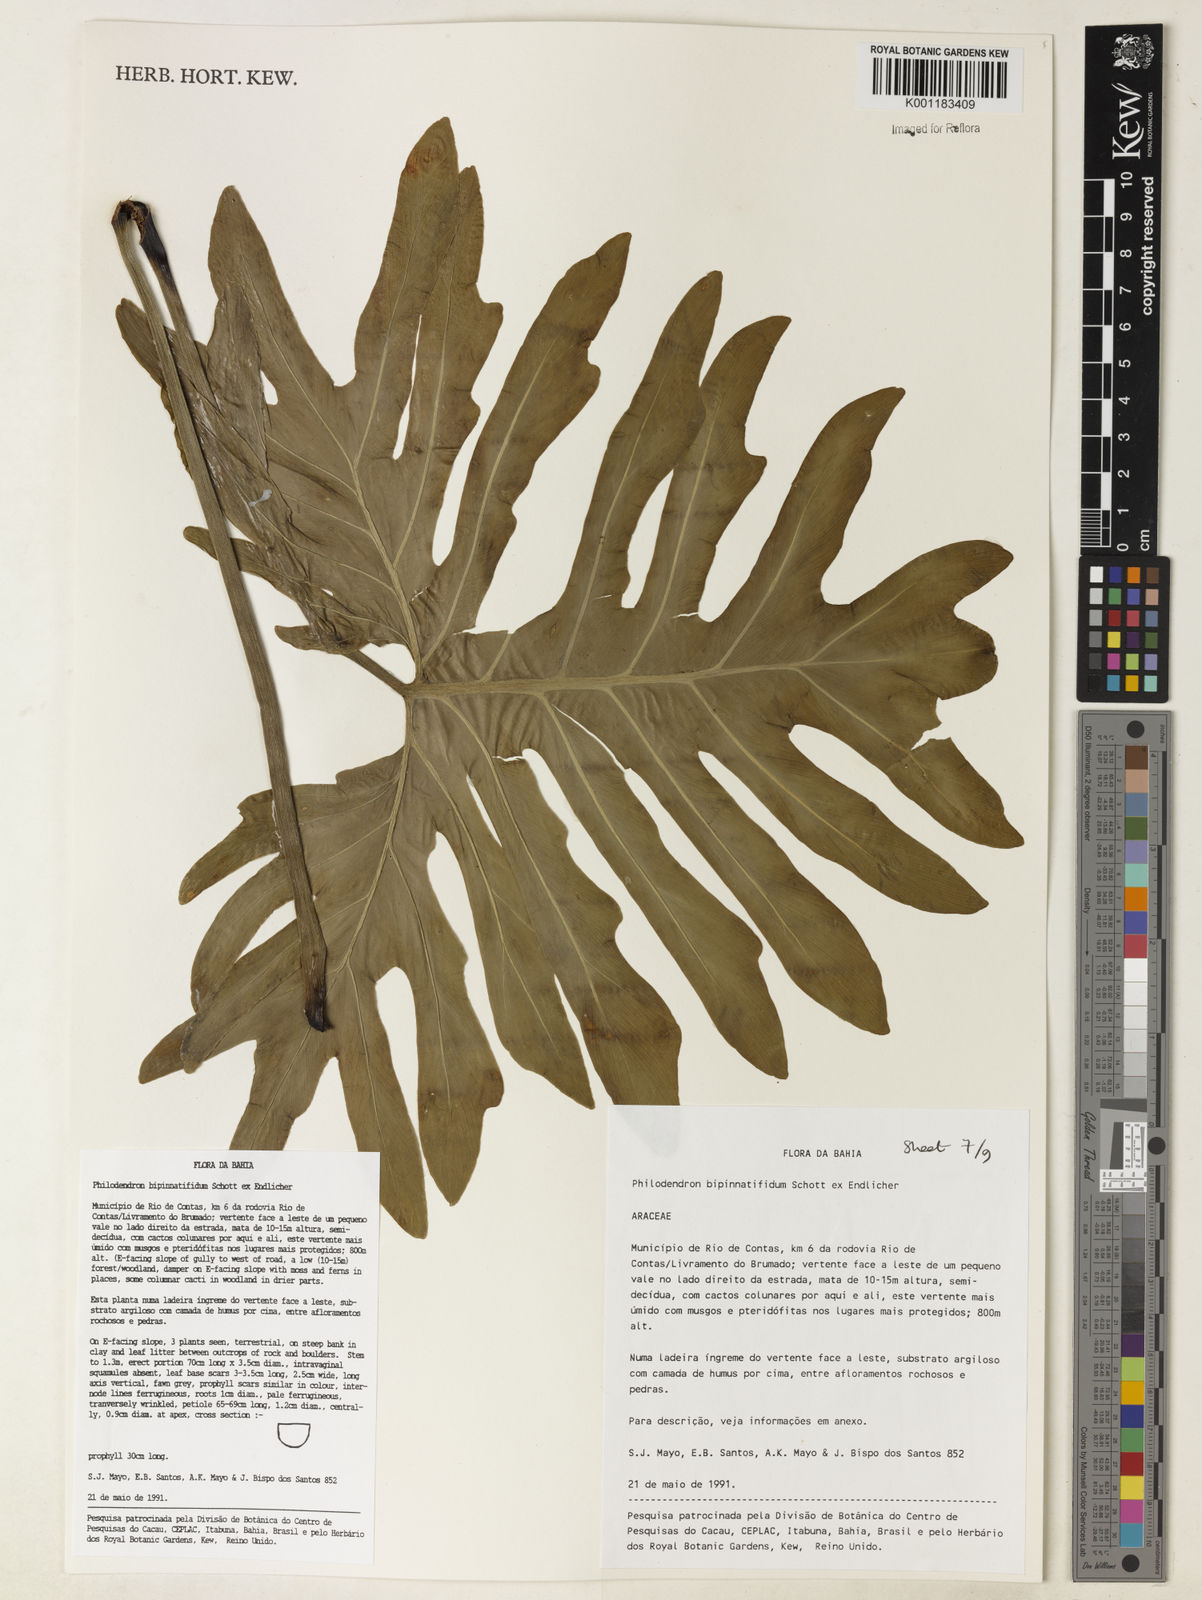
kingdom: Plantae
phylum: Tracheophyta
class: Liliopsida
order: Alismatales
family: Araceae
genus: Philodendron
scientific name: Philodendron
